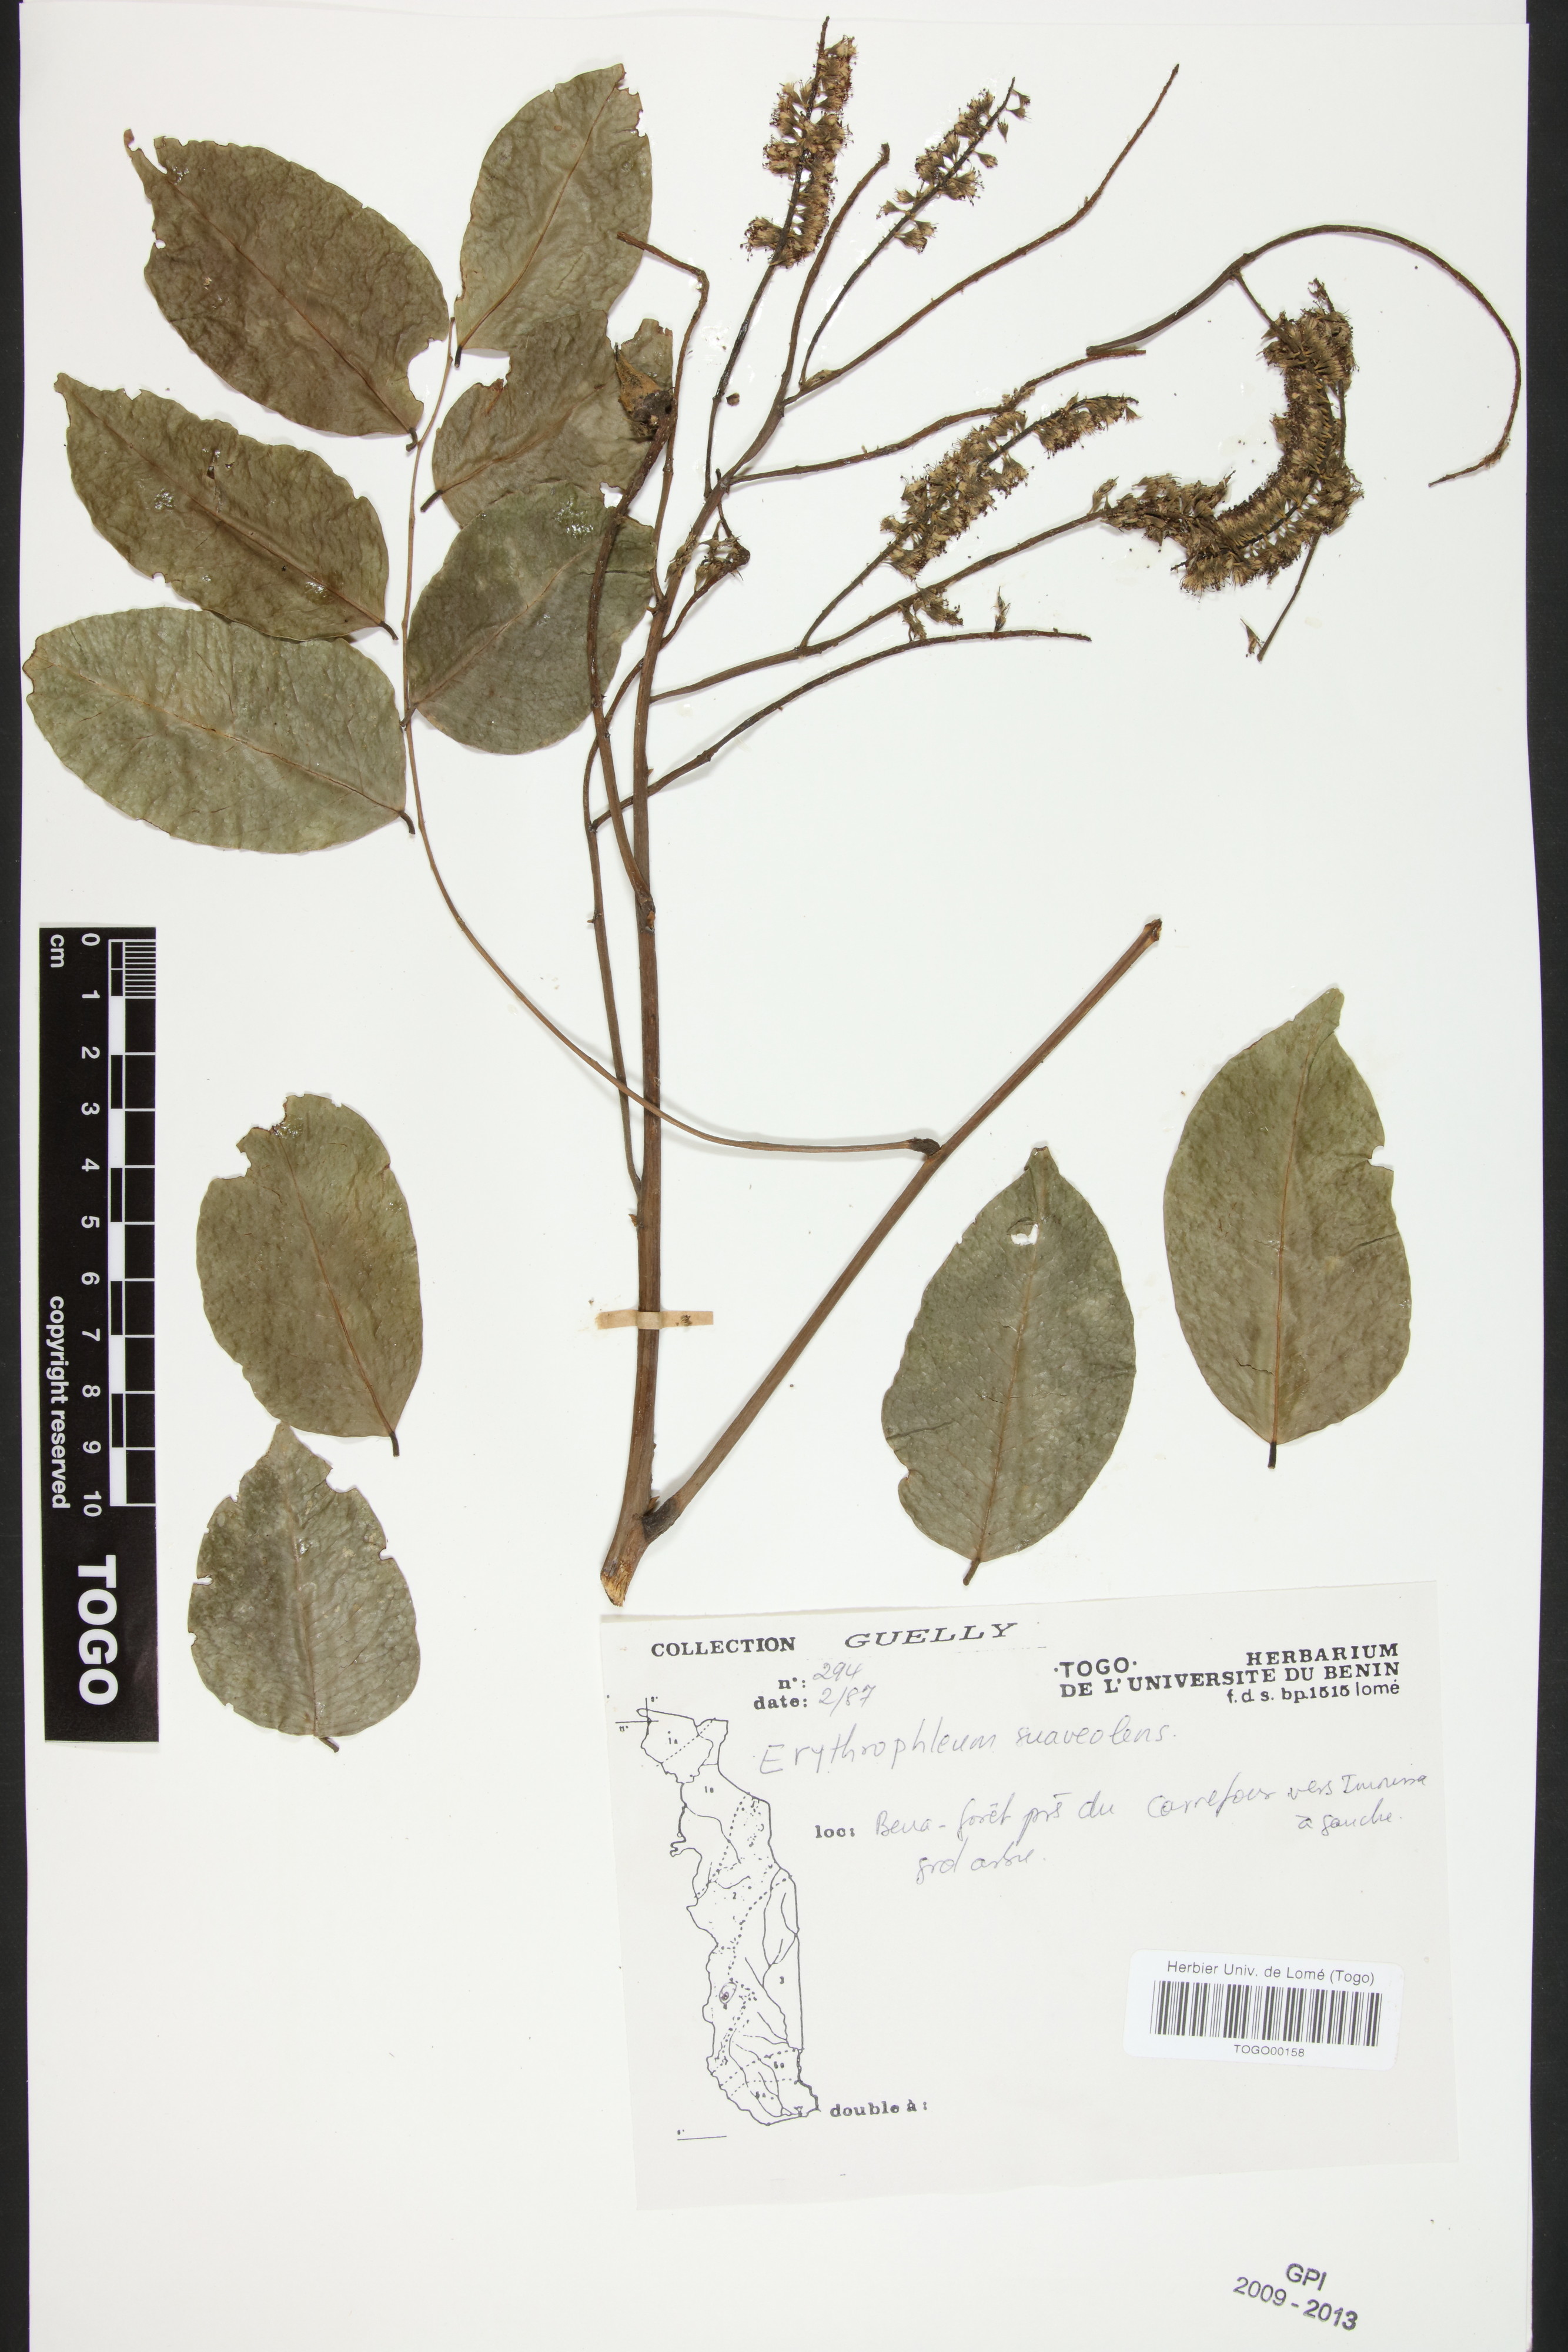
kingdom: Plantae
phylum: Tracheophyta
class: Magnoliopsida
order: Fabales
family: Fabaceae
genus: Erythrophleum
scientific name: Erythrophleum suaveolens
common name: Ordeal tree
